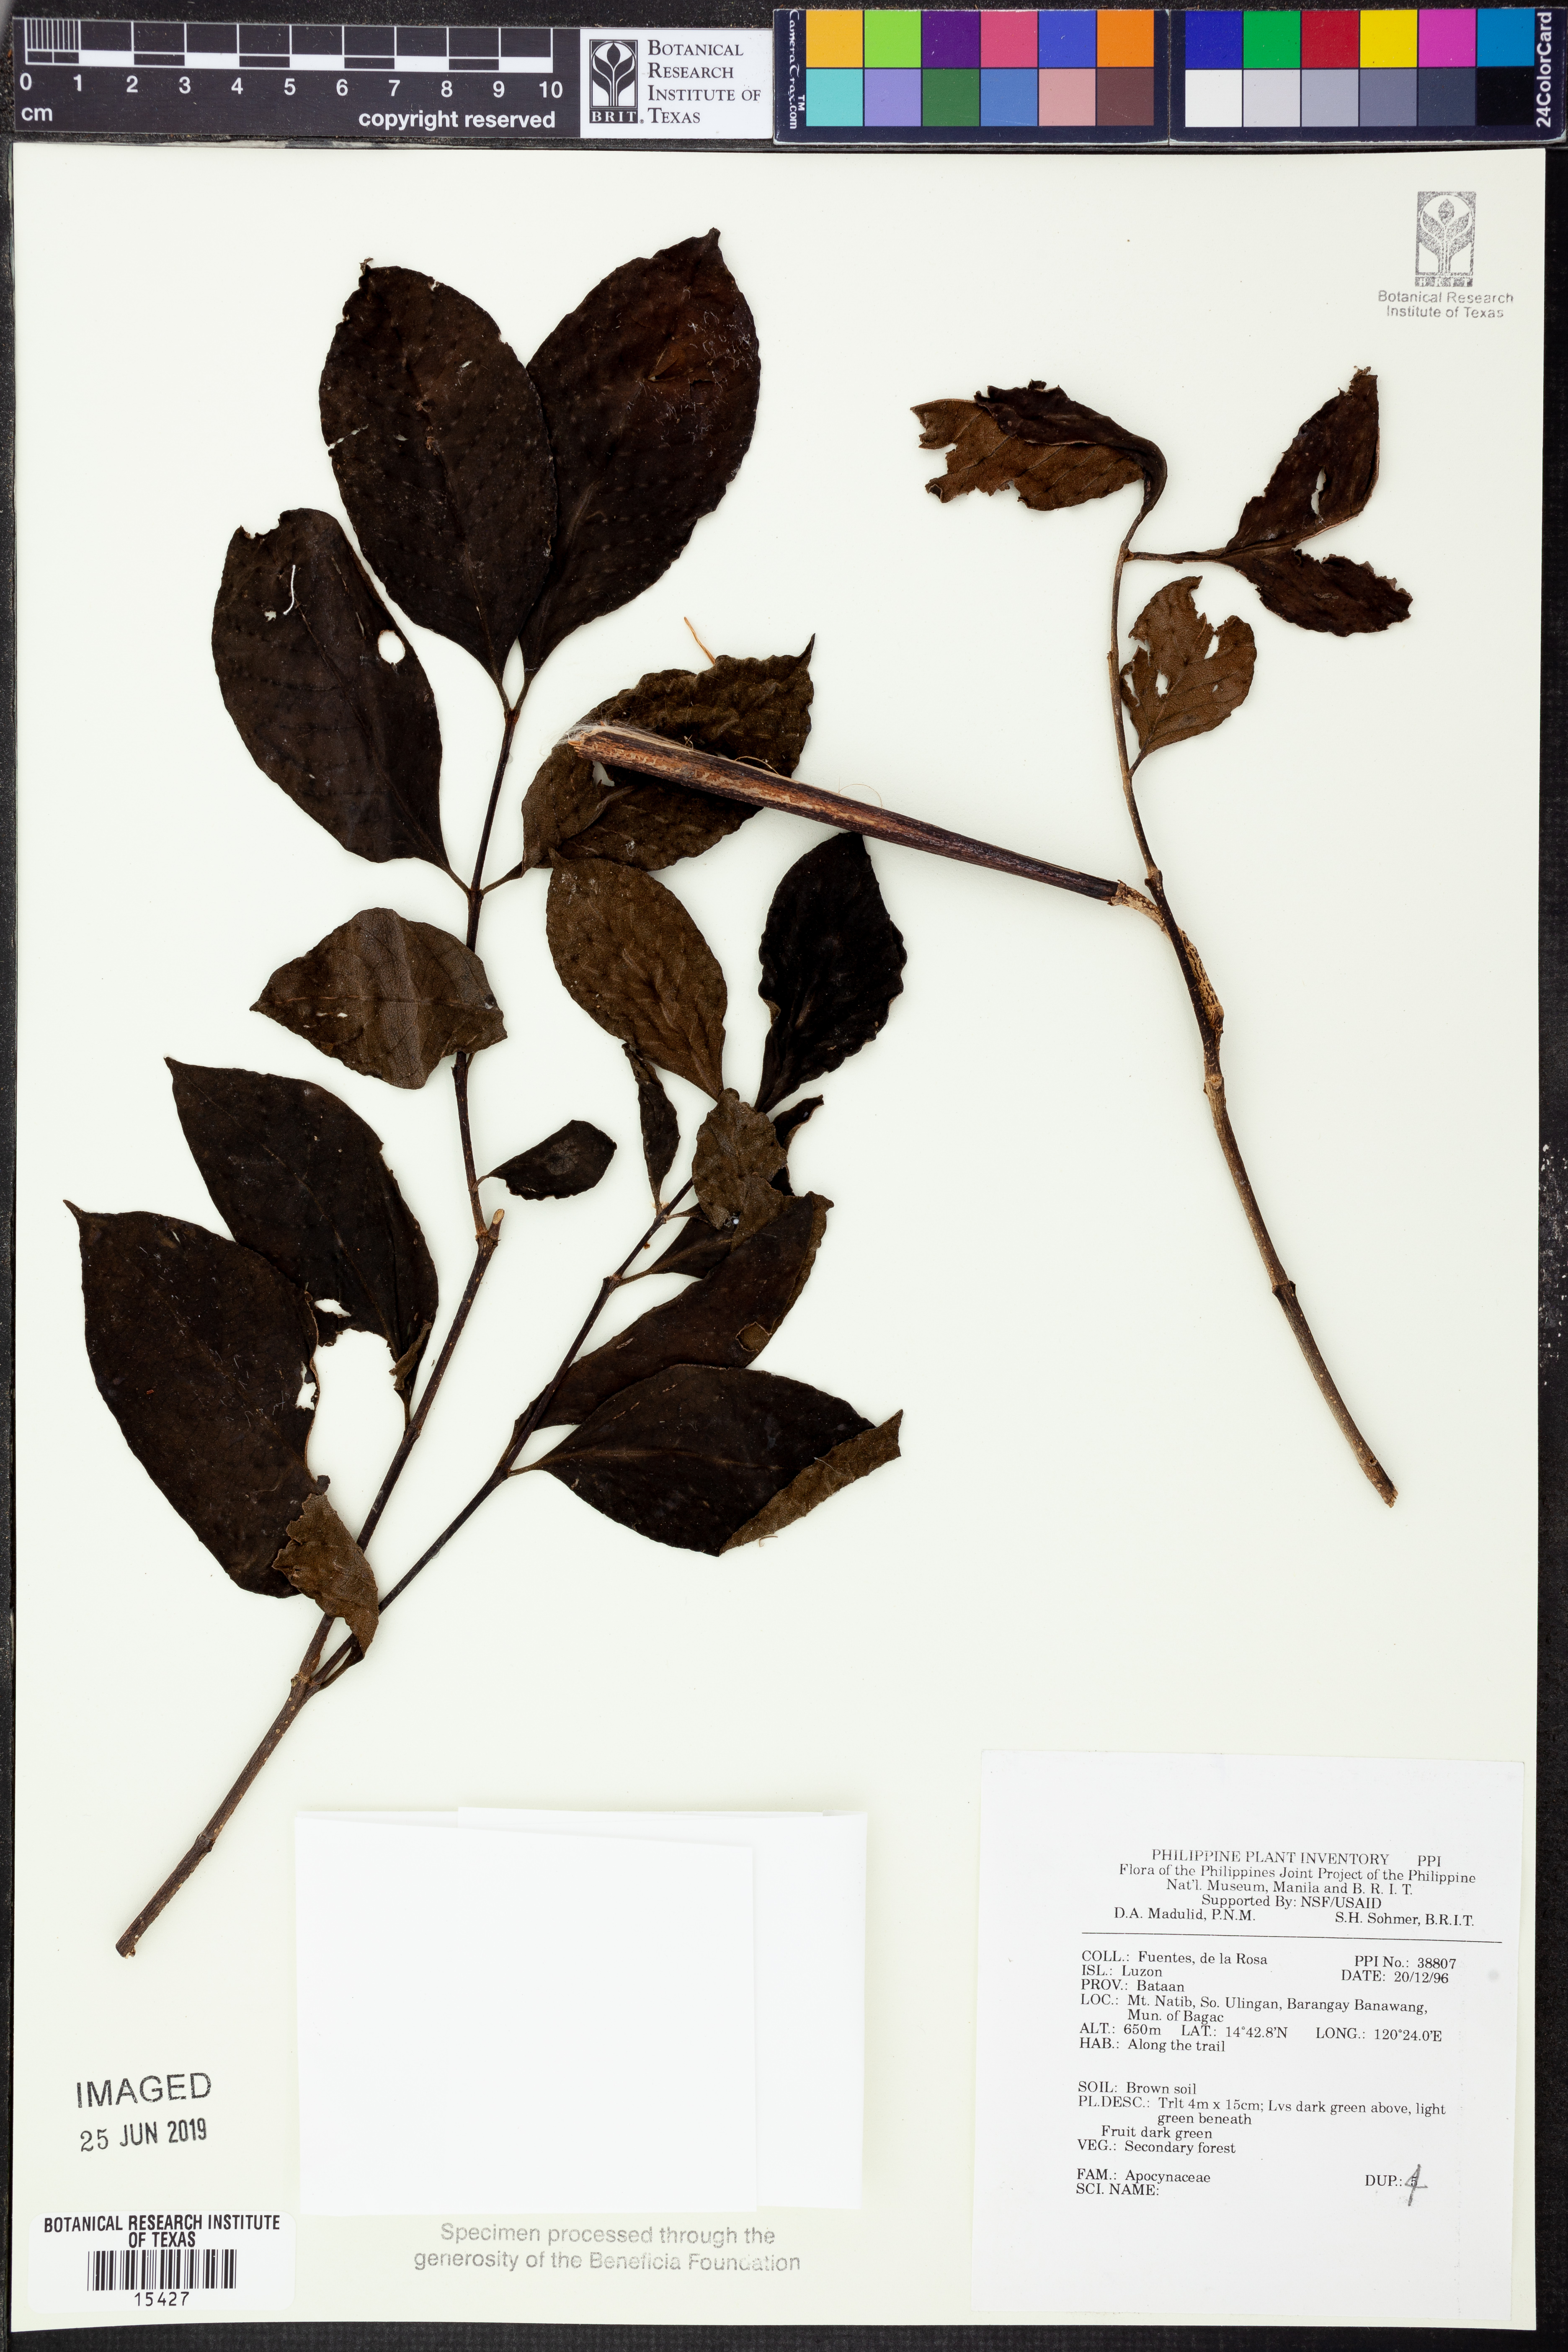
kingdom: Plantae
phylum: Tracheophyta
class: Magnoliopsida
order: Gentianales
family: Apocynaceae
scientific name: Apocynaceae
